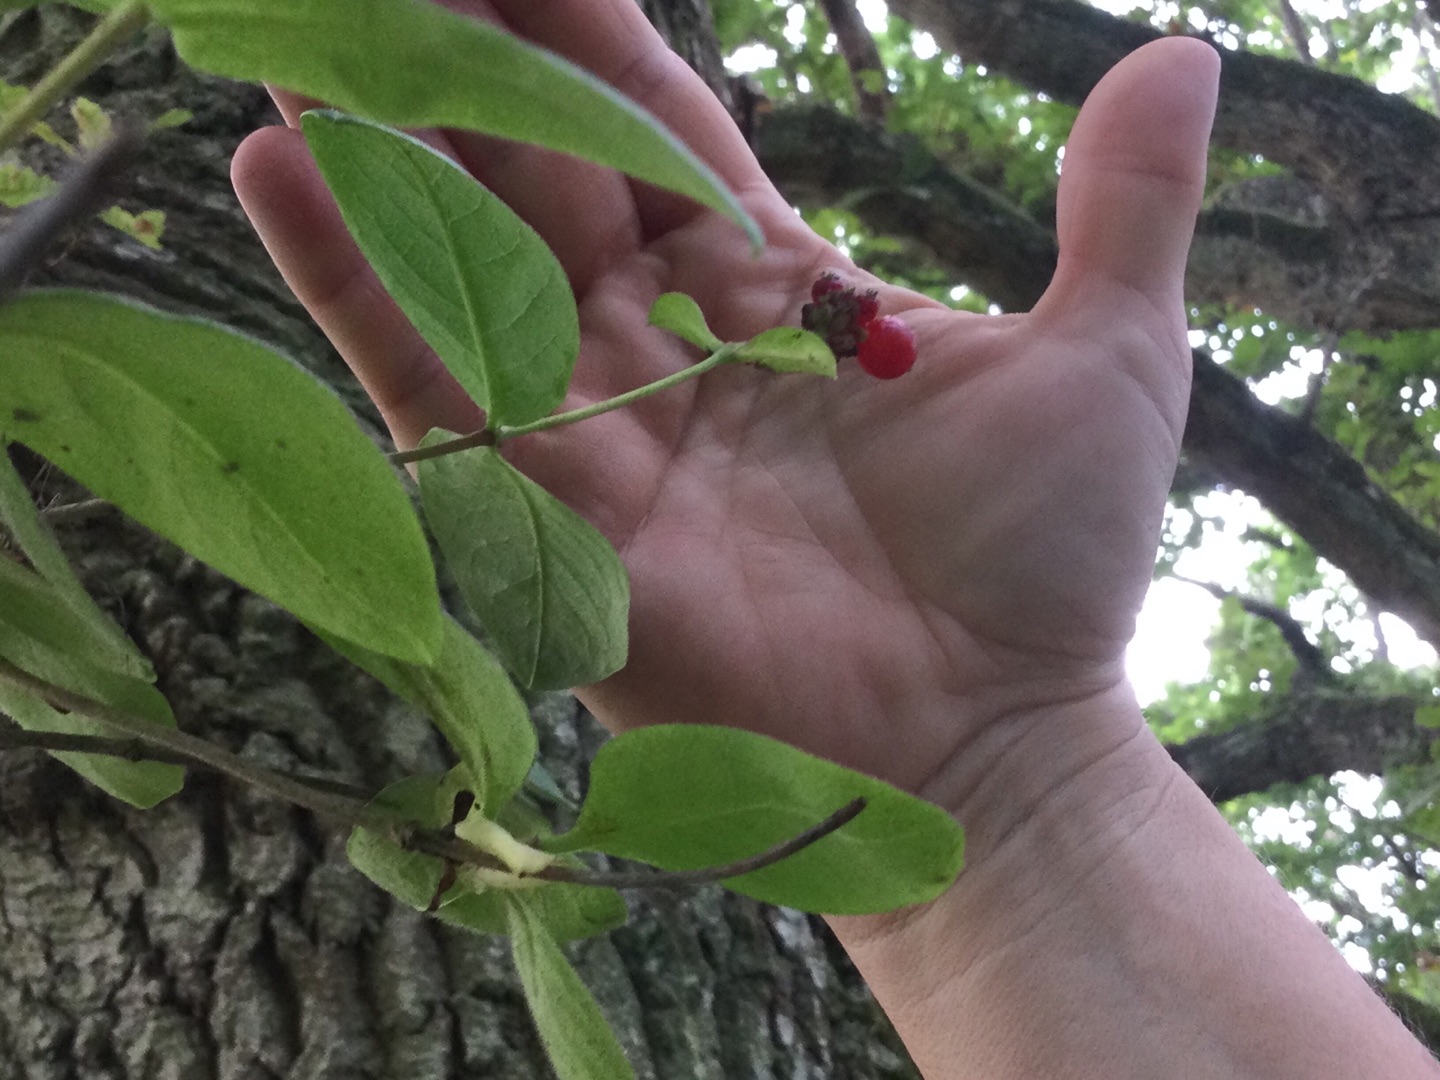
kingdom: Plantae
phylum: Tracheophyta
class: Magnoliopsida
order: Dipsacales
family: Caprifoliaceae
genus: Lonicera
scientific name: Lonicera periclymenum
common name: Almindelig gedeblad
